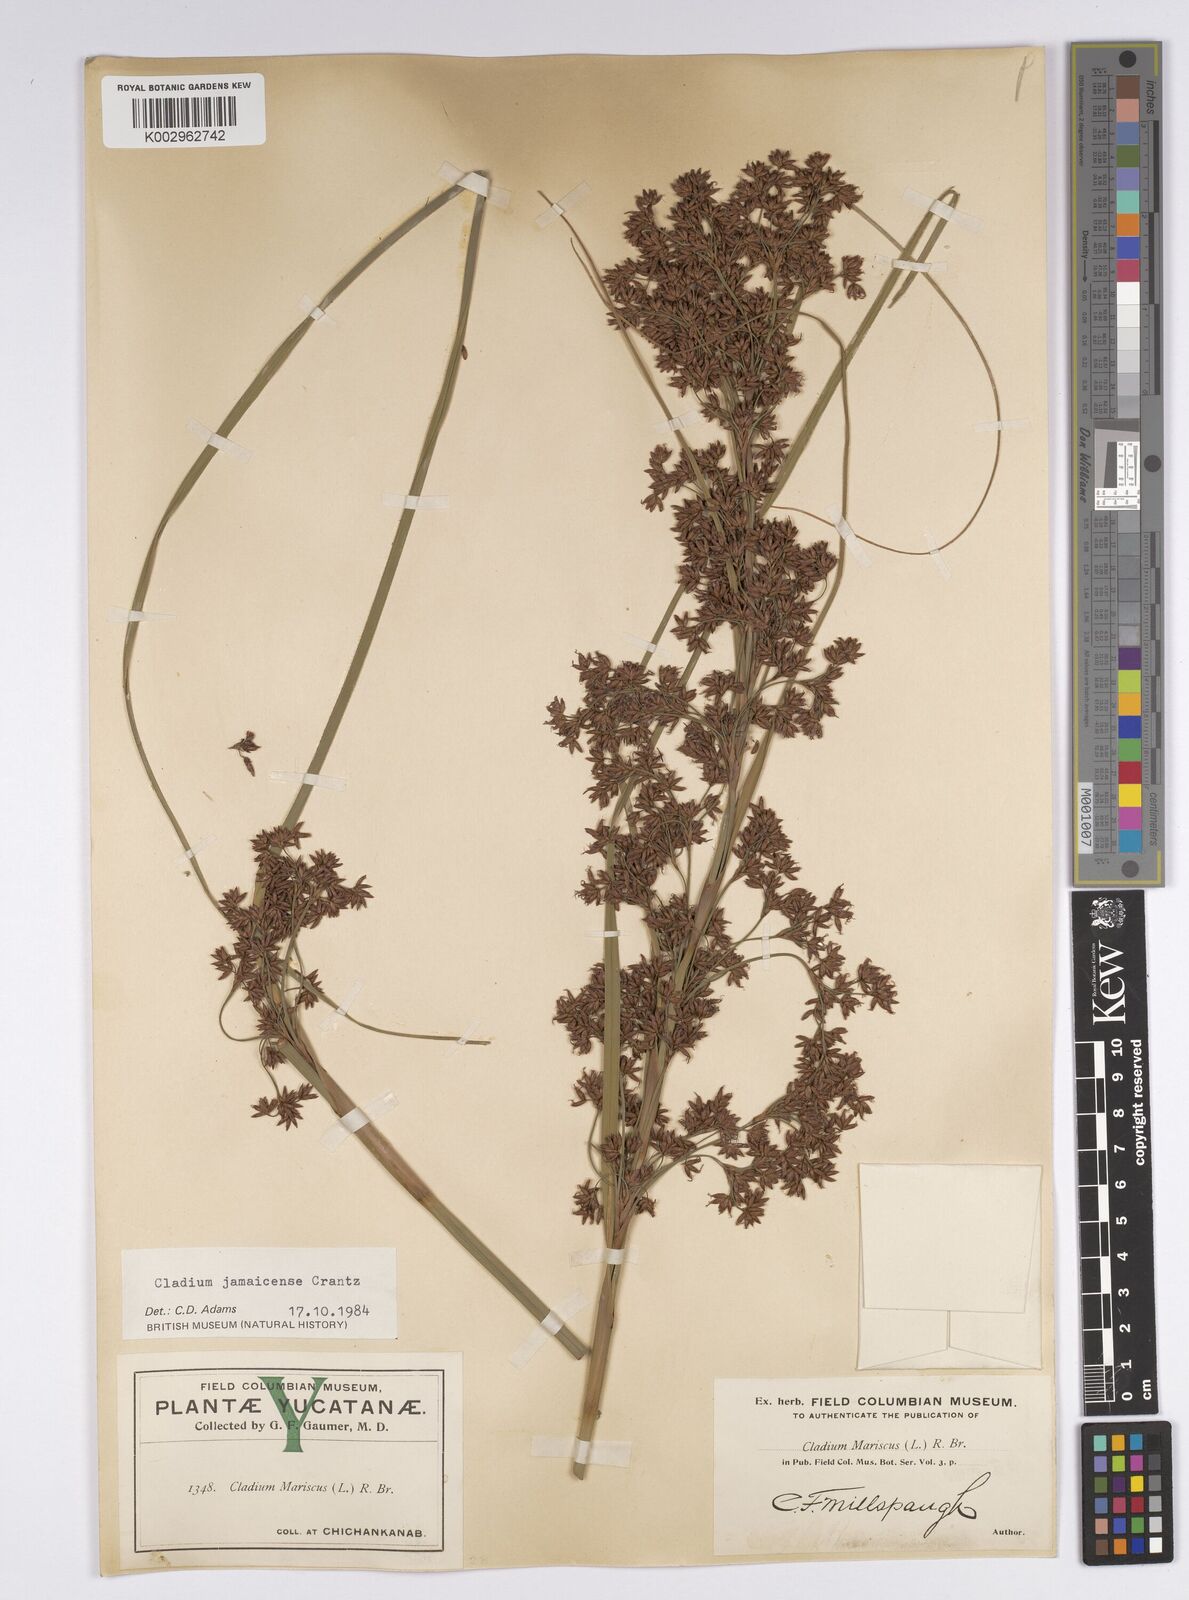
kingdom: Plantae
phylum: Tracheophyta
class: Liliopsida
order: Poales
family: Cyperaceae
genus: Cladium
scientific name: Cladium mariscus
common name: Great fen-sedge
